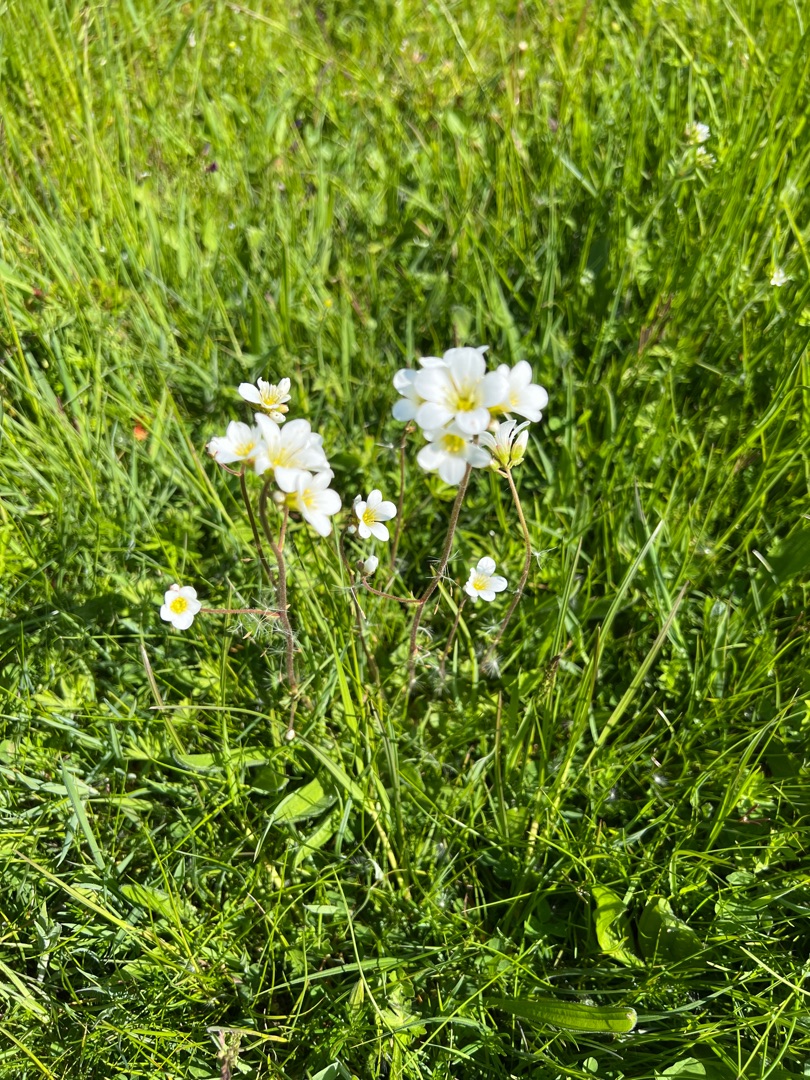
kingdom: Plantae
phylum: Tracheophyta
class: Magnoliopsida
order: Saxifragales
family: Saxifragaceae
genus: Saxifraga
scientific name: Saxifraga granulata
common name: Kornet stenbræk
